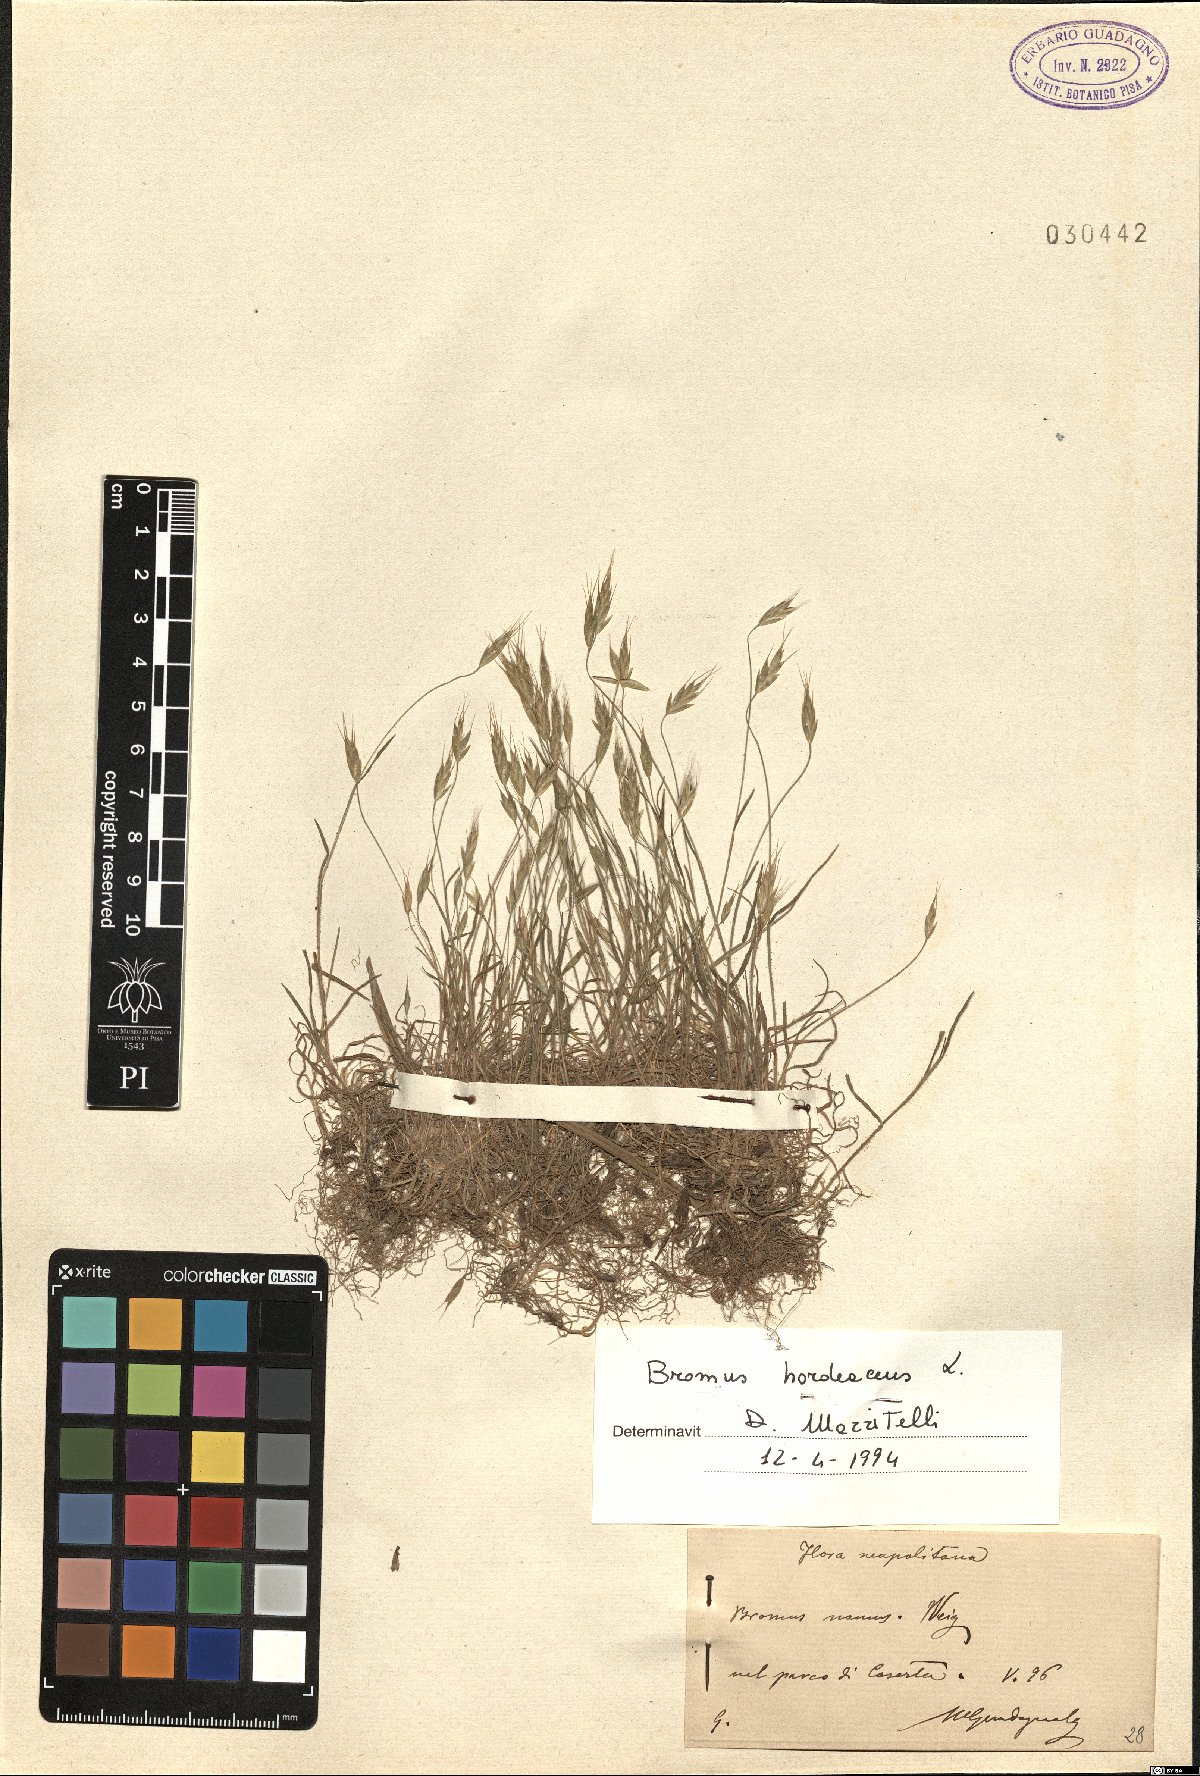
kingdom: Plantae
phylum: Tracheophyta
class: Liliopsida
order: Poales
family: Poaceae
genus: Bromus
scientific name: Bromus hordeaceus
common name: Soft brome
